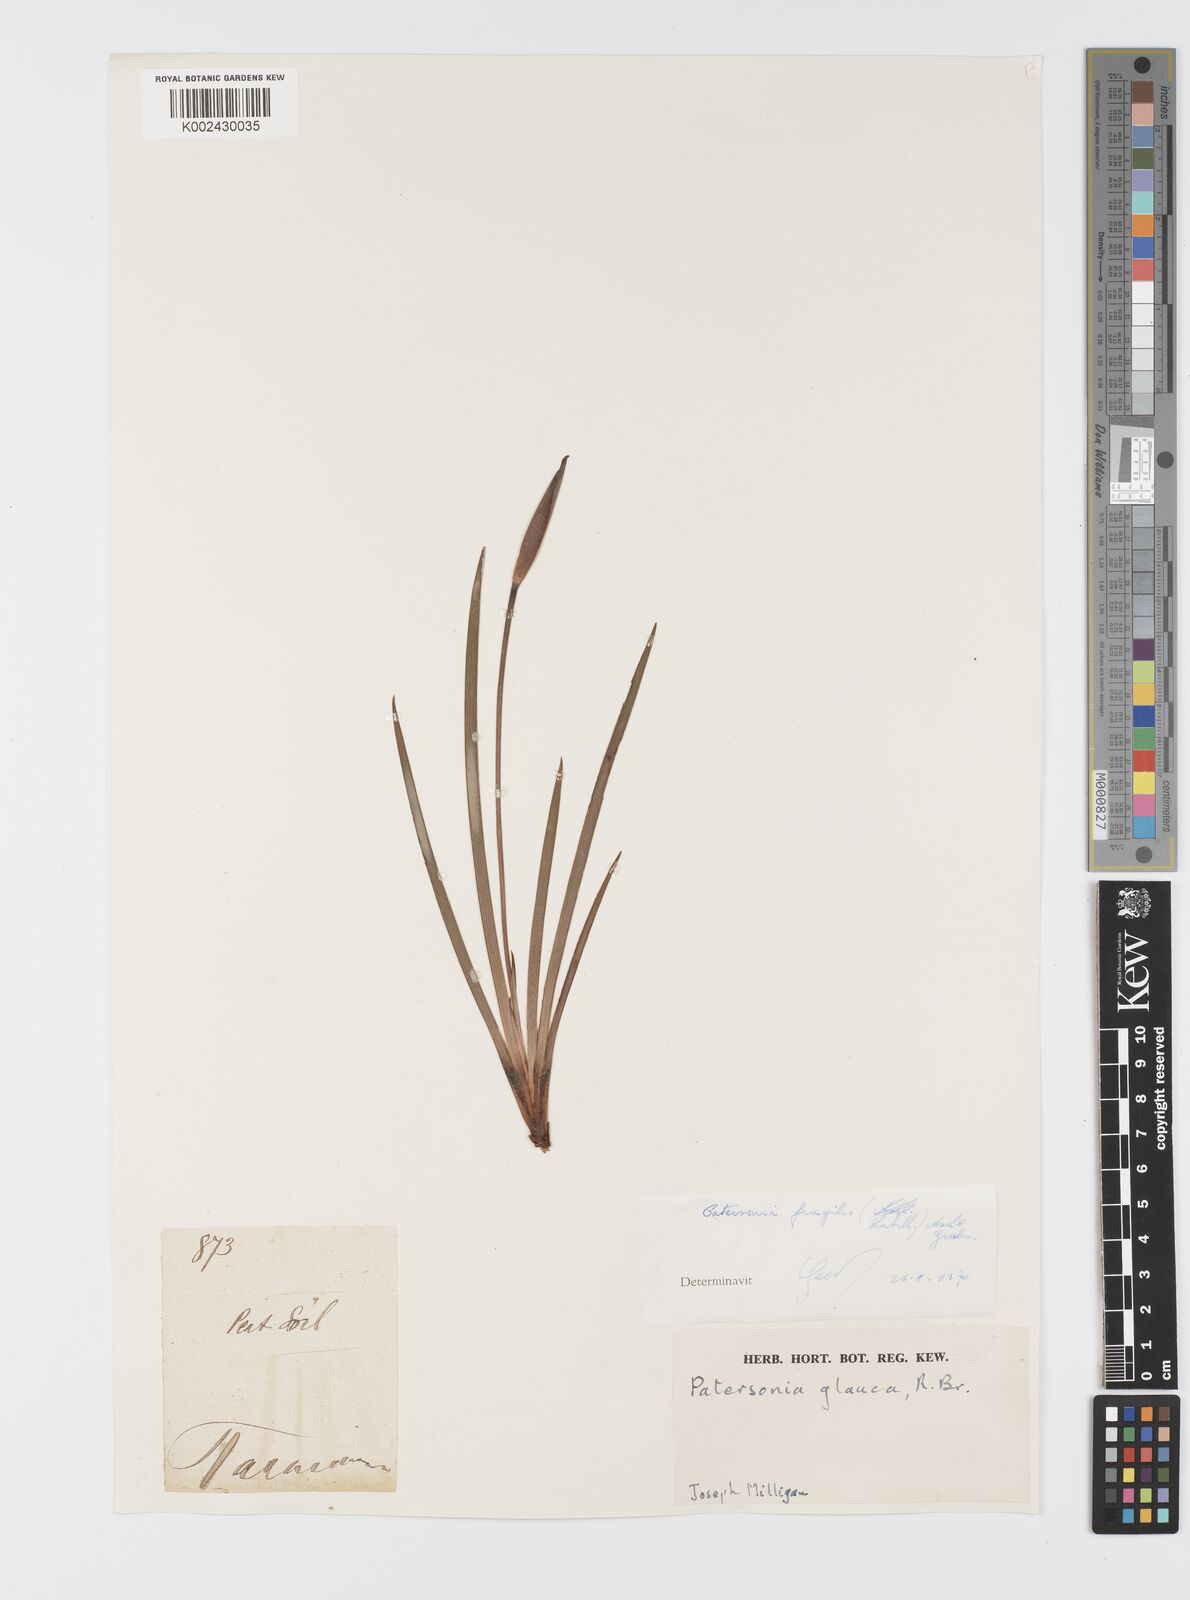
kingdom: Plantae
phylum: Tracheophyta
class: Liliopsida
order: Asparagales
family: Iridaceae
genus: Patersonia
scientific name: Patersonia fragilis
